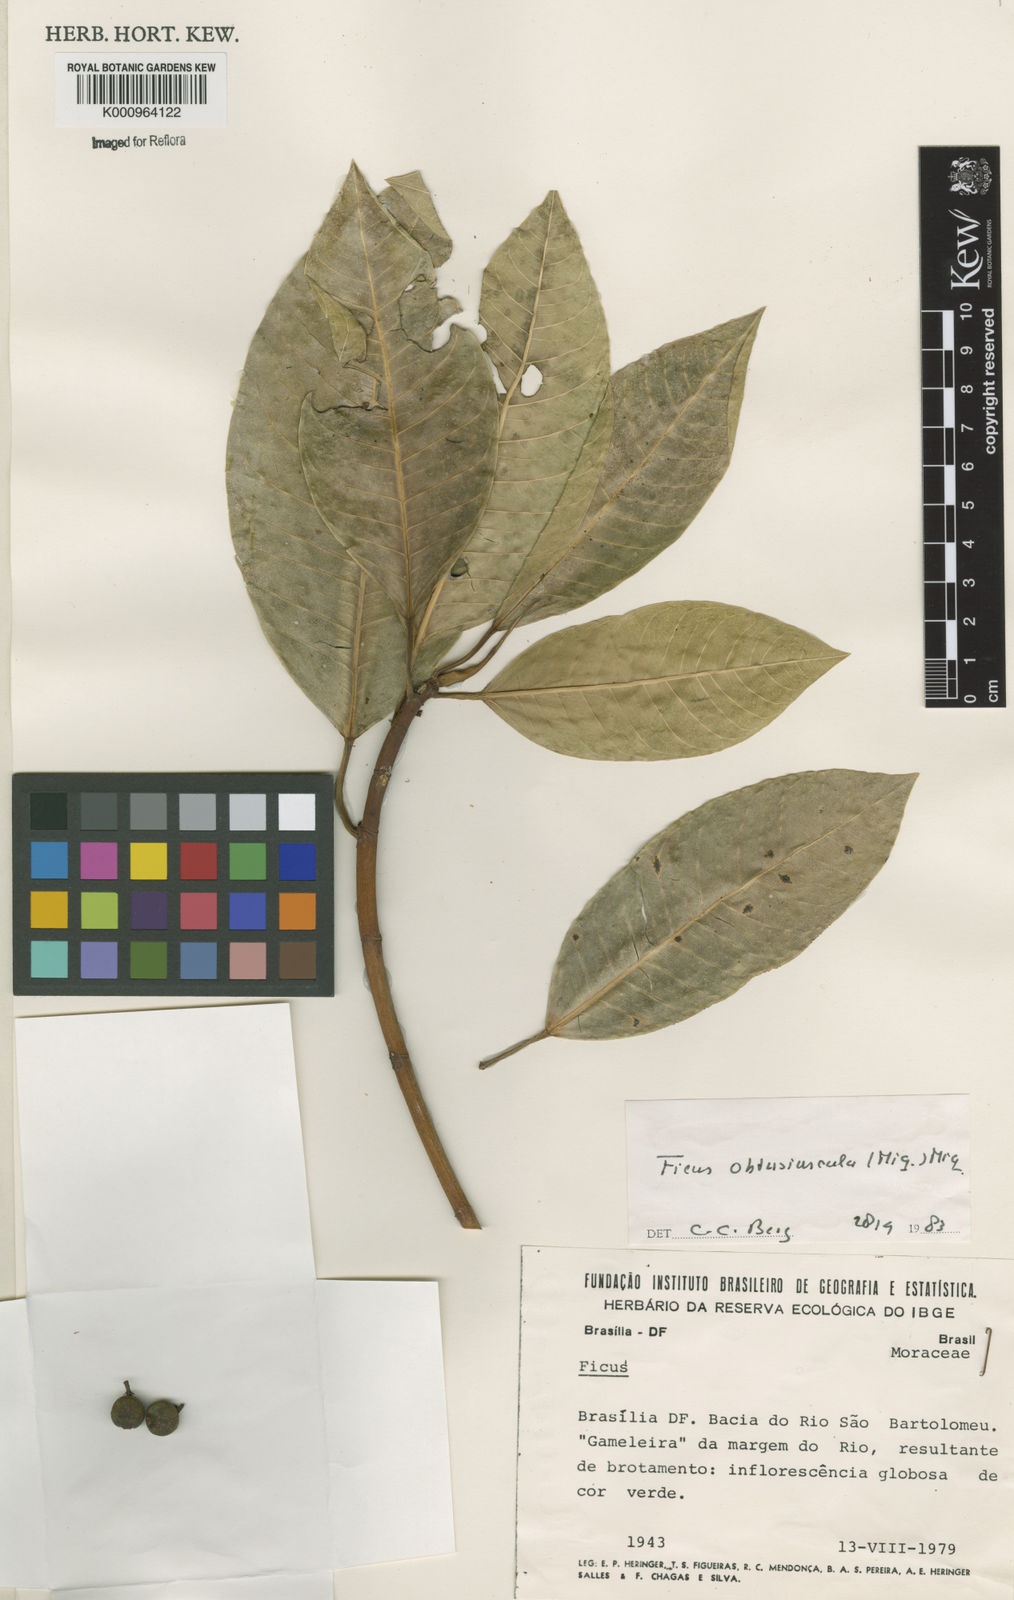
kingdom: Plantae
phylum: Tracheophyta
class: Magnoliopsida
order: Rosales
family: Moraceae
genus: Ficus
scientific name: Ficus obtusiuscula
